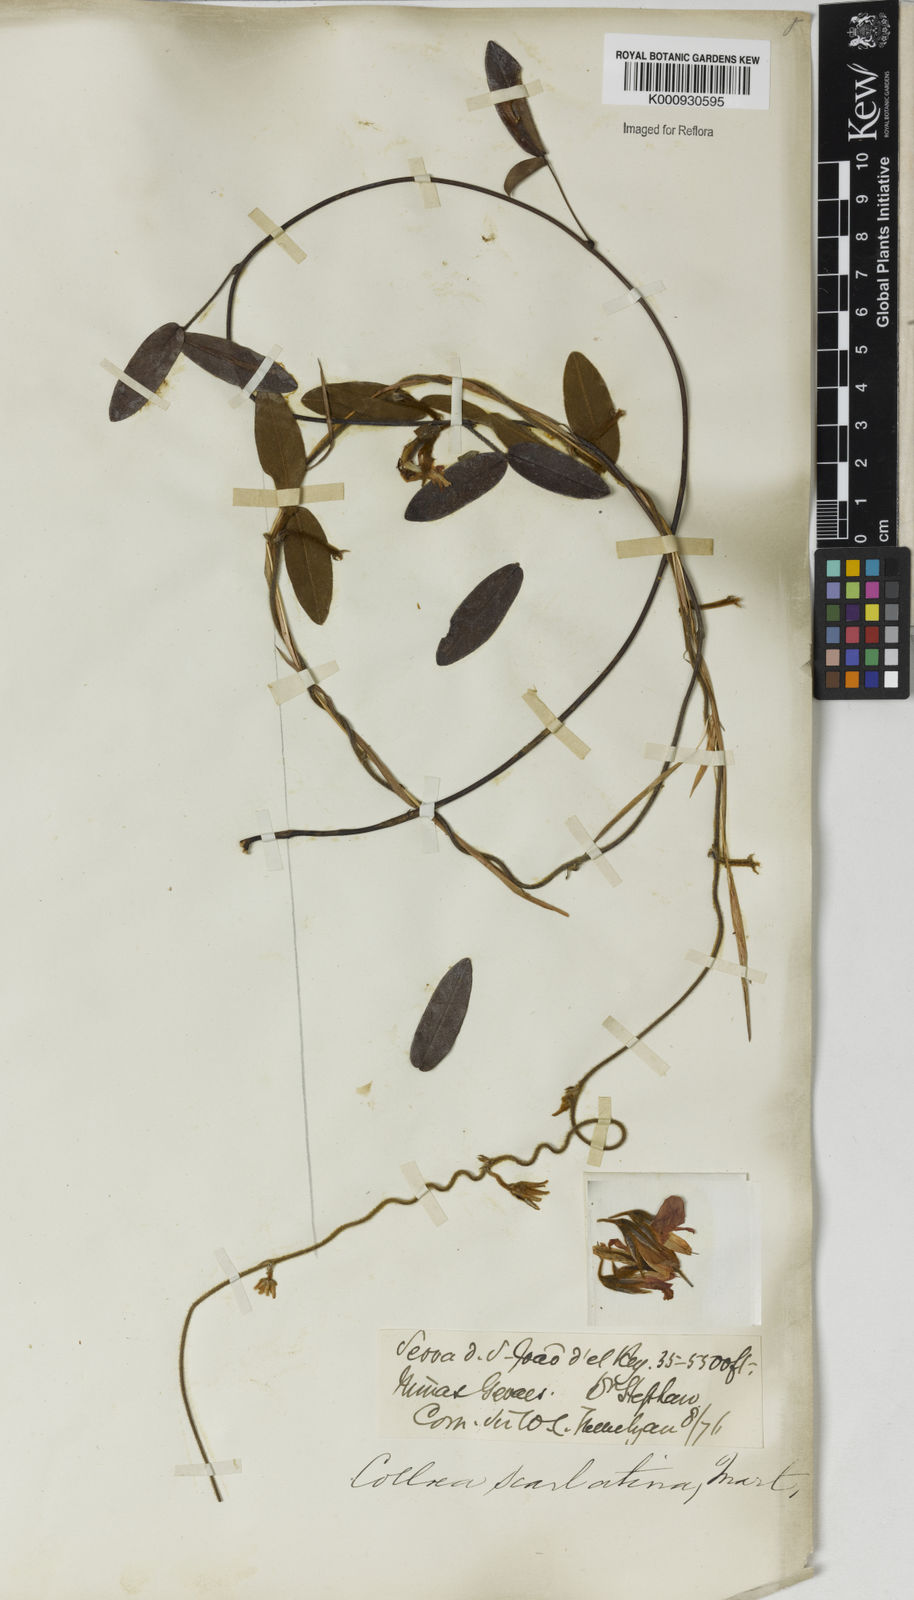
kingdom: Plantae
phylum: Tracheophyta
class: Magnoliopsida
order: Fabales
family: Fabaceae
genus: Betencourtia
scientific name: Betencourtia scarlatina
